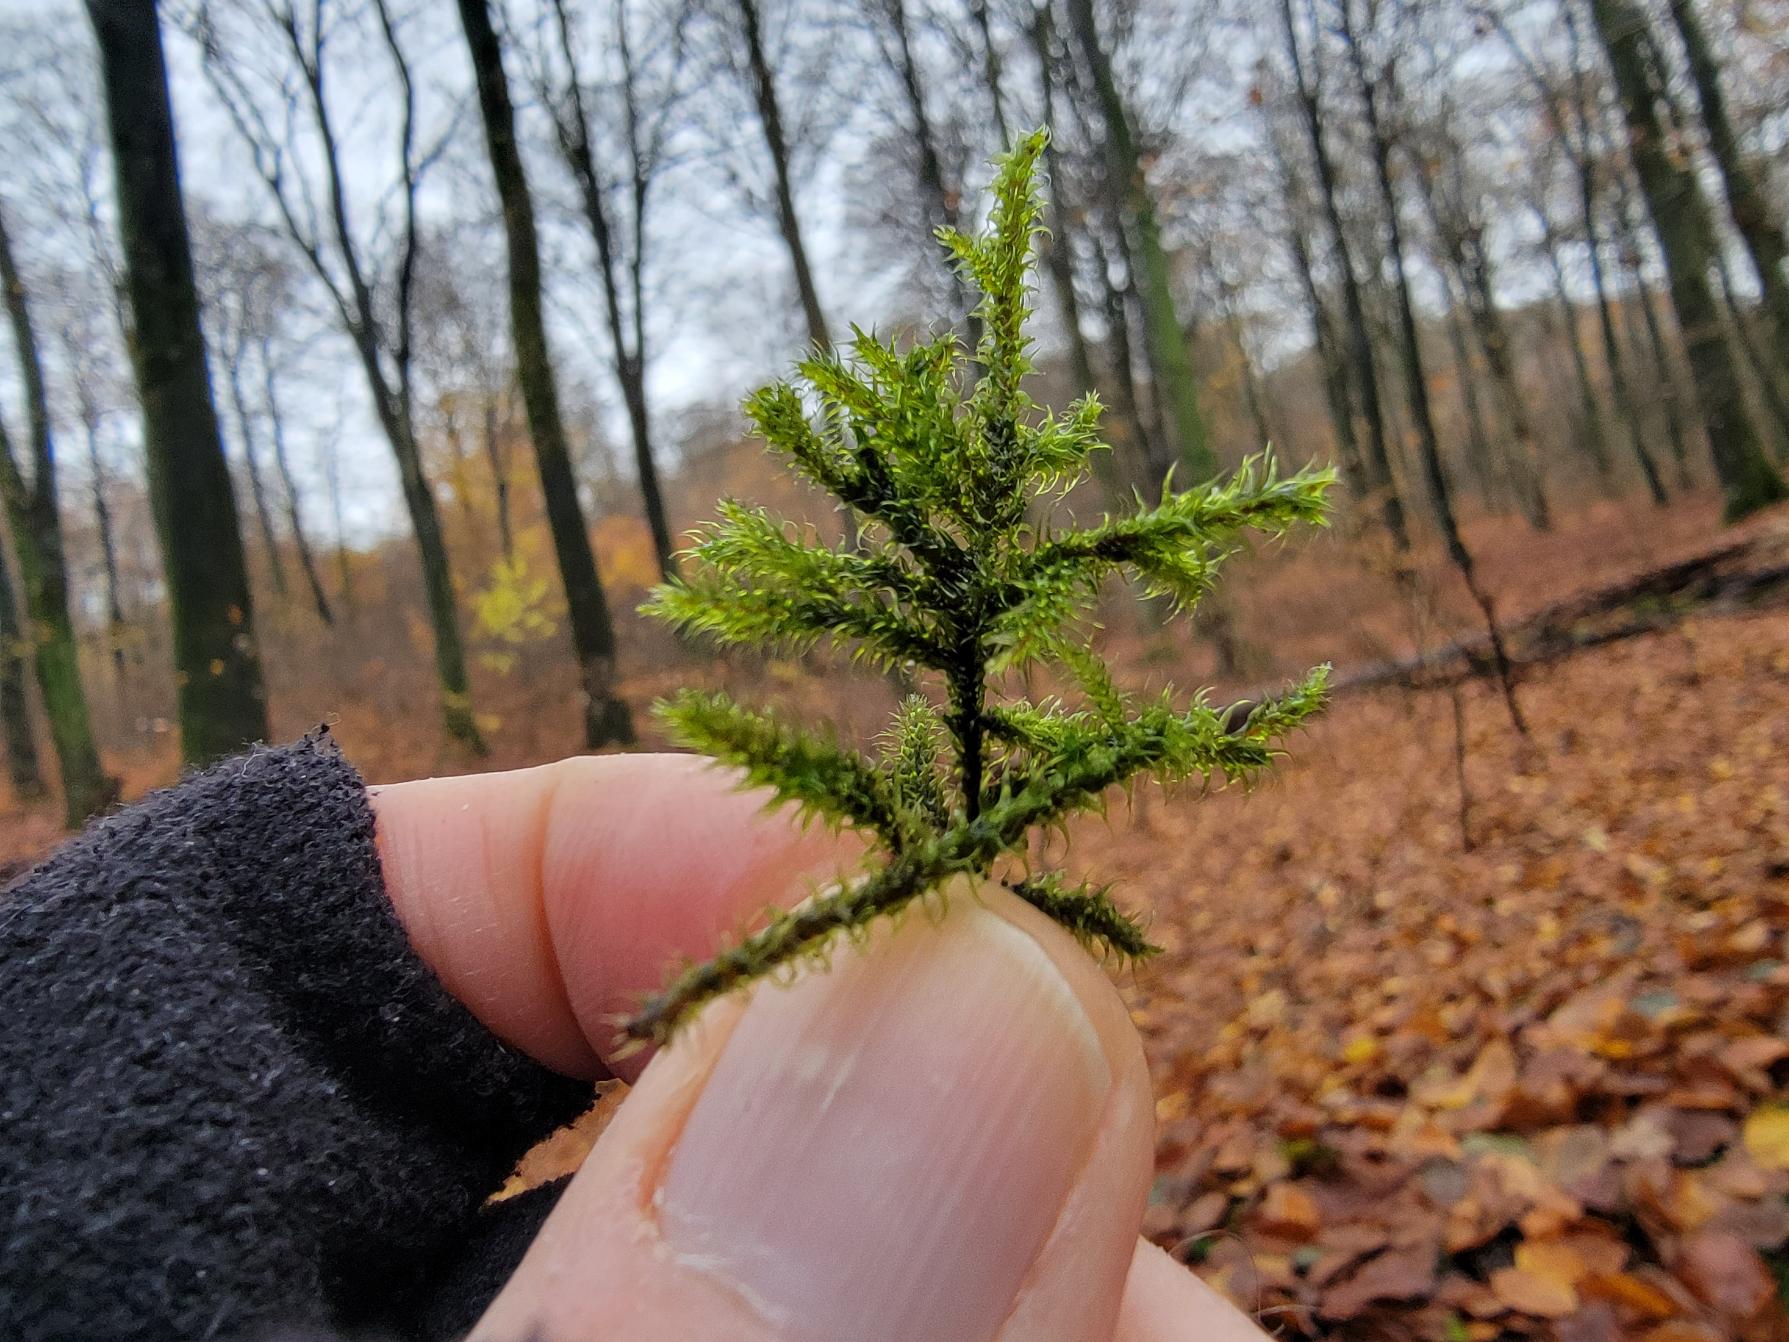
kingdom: Plantae
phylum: Bryophyta
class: Bryopsida
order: Hypnales
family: Hylocomiaceae
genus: Rhytidiadelphus
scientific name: Rhytidiadelphus loreus
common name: Ulvefod-kransemos
